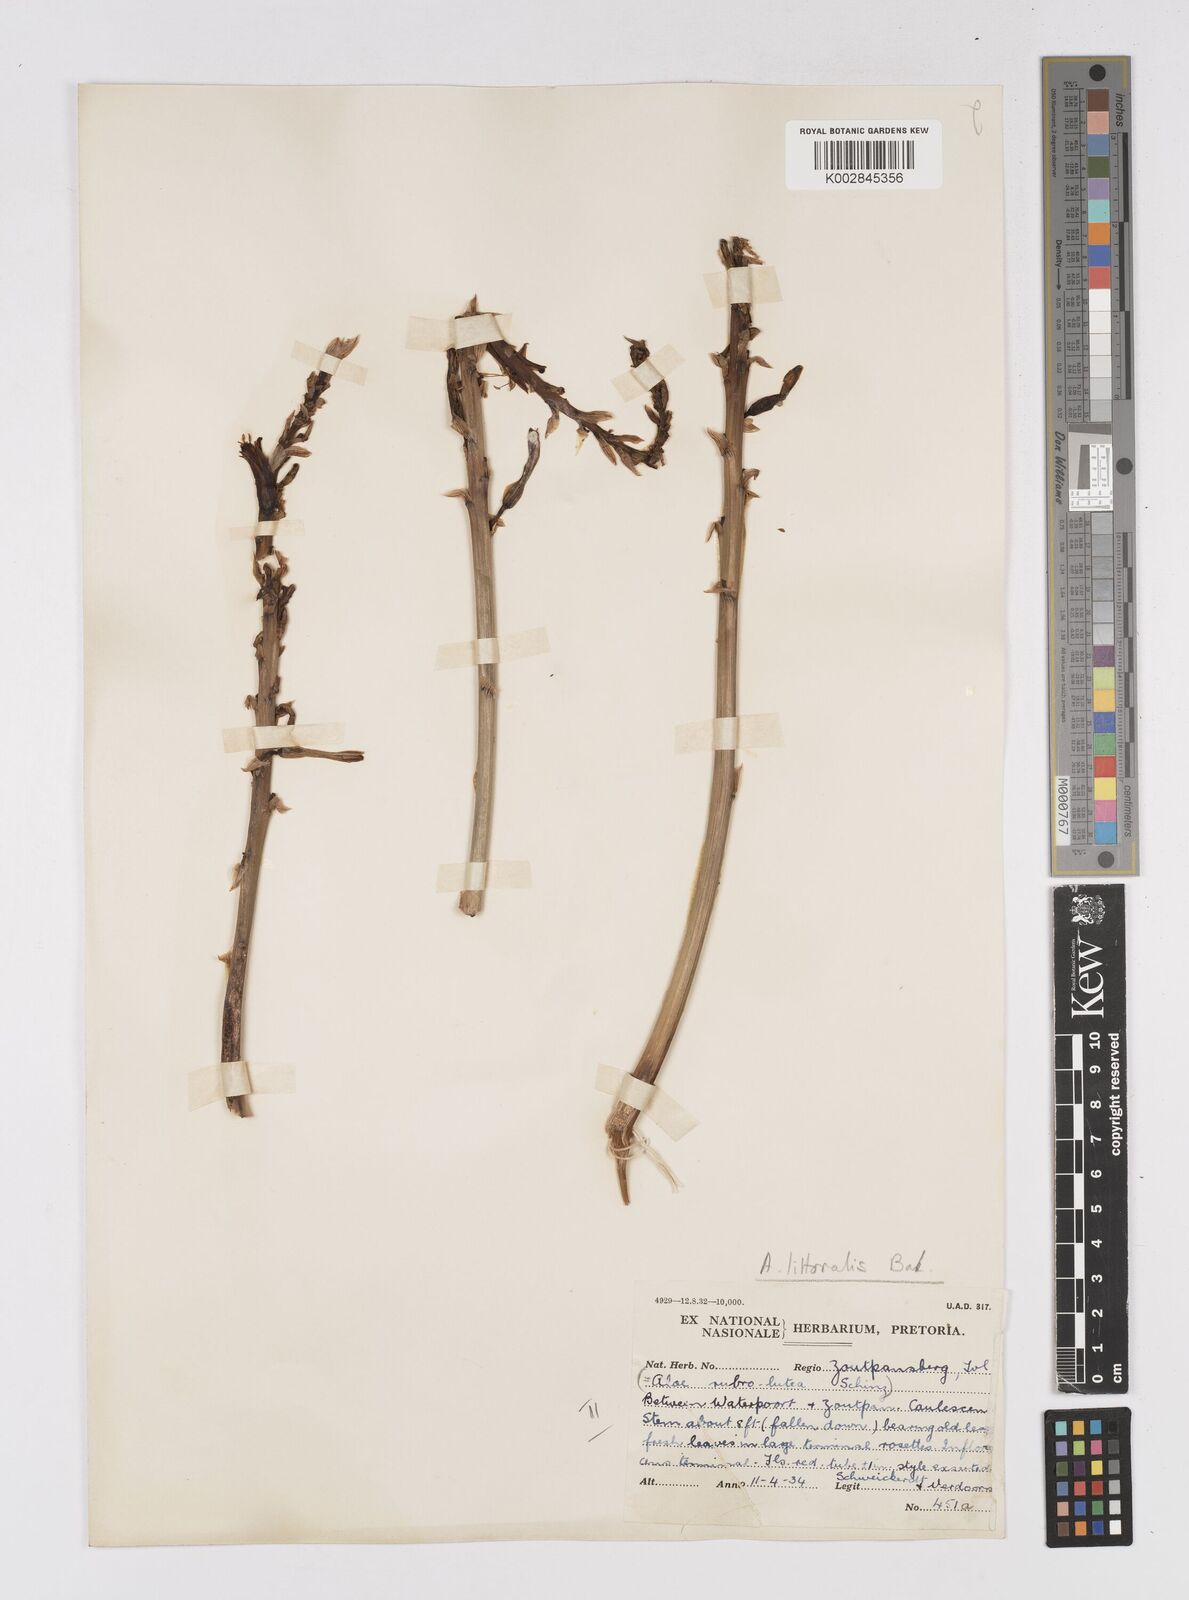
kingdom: Plantae
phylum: Tracheophyta
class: Liliopsida
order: Asparagales
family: Asphodelaceae
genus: Aloe
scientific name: Aloe littoralis
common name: Luanda tree aloe
